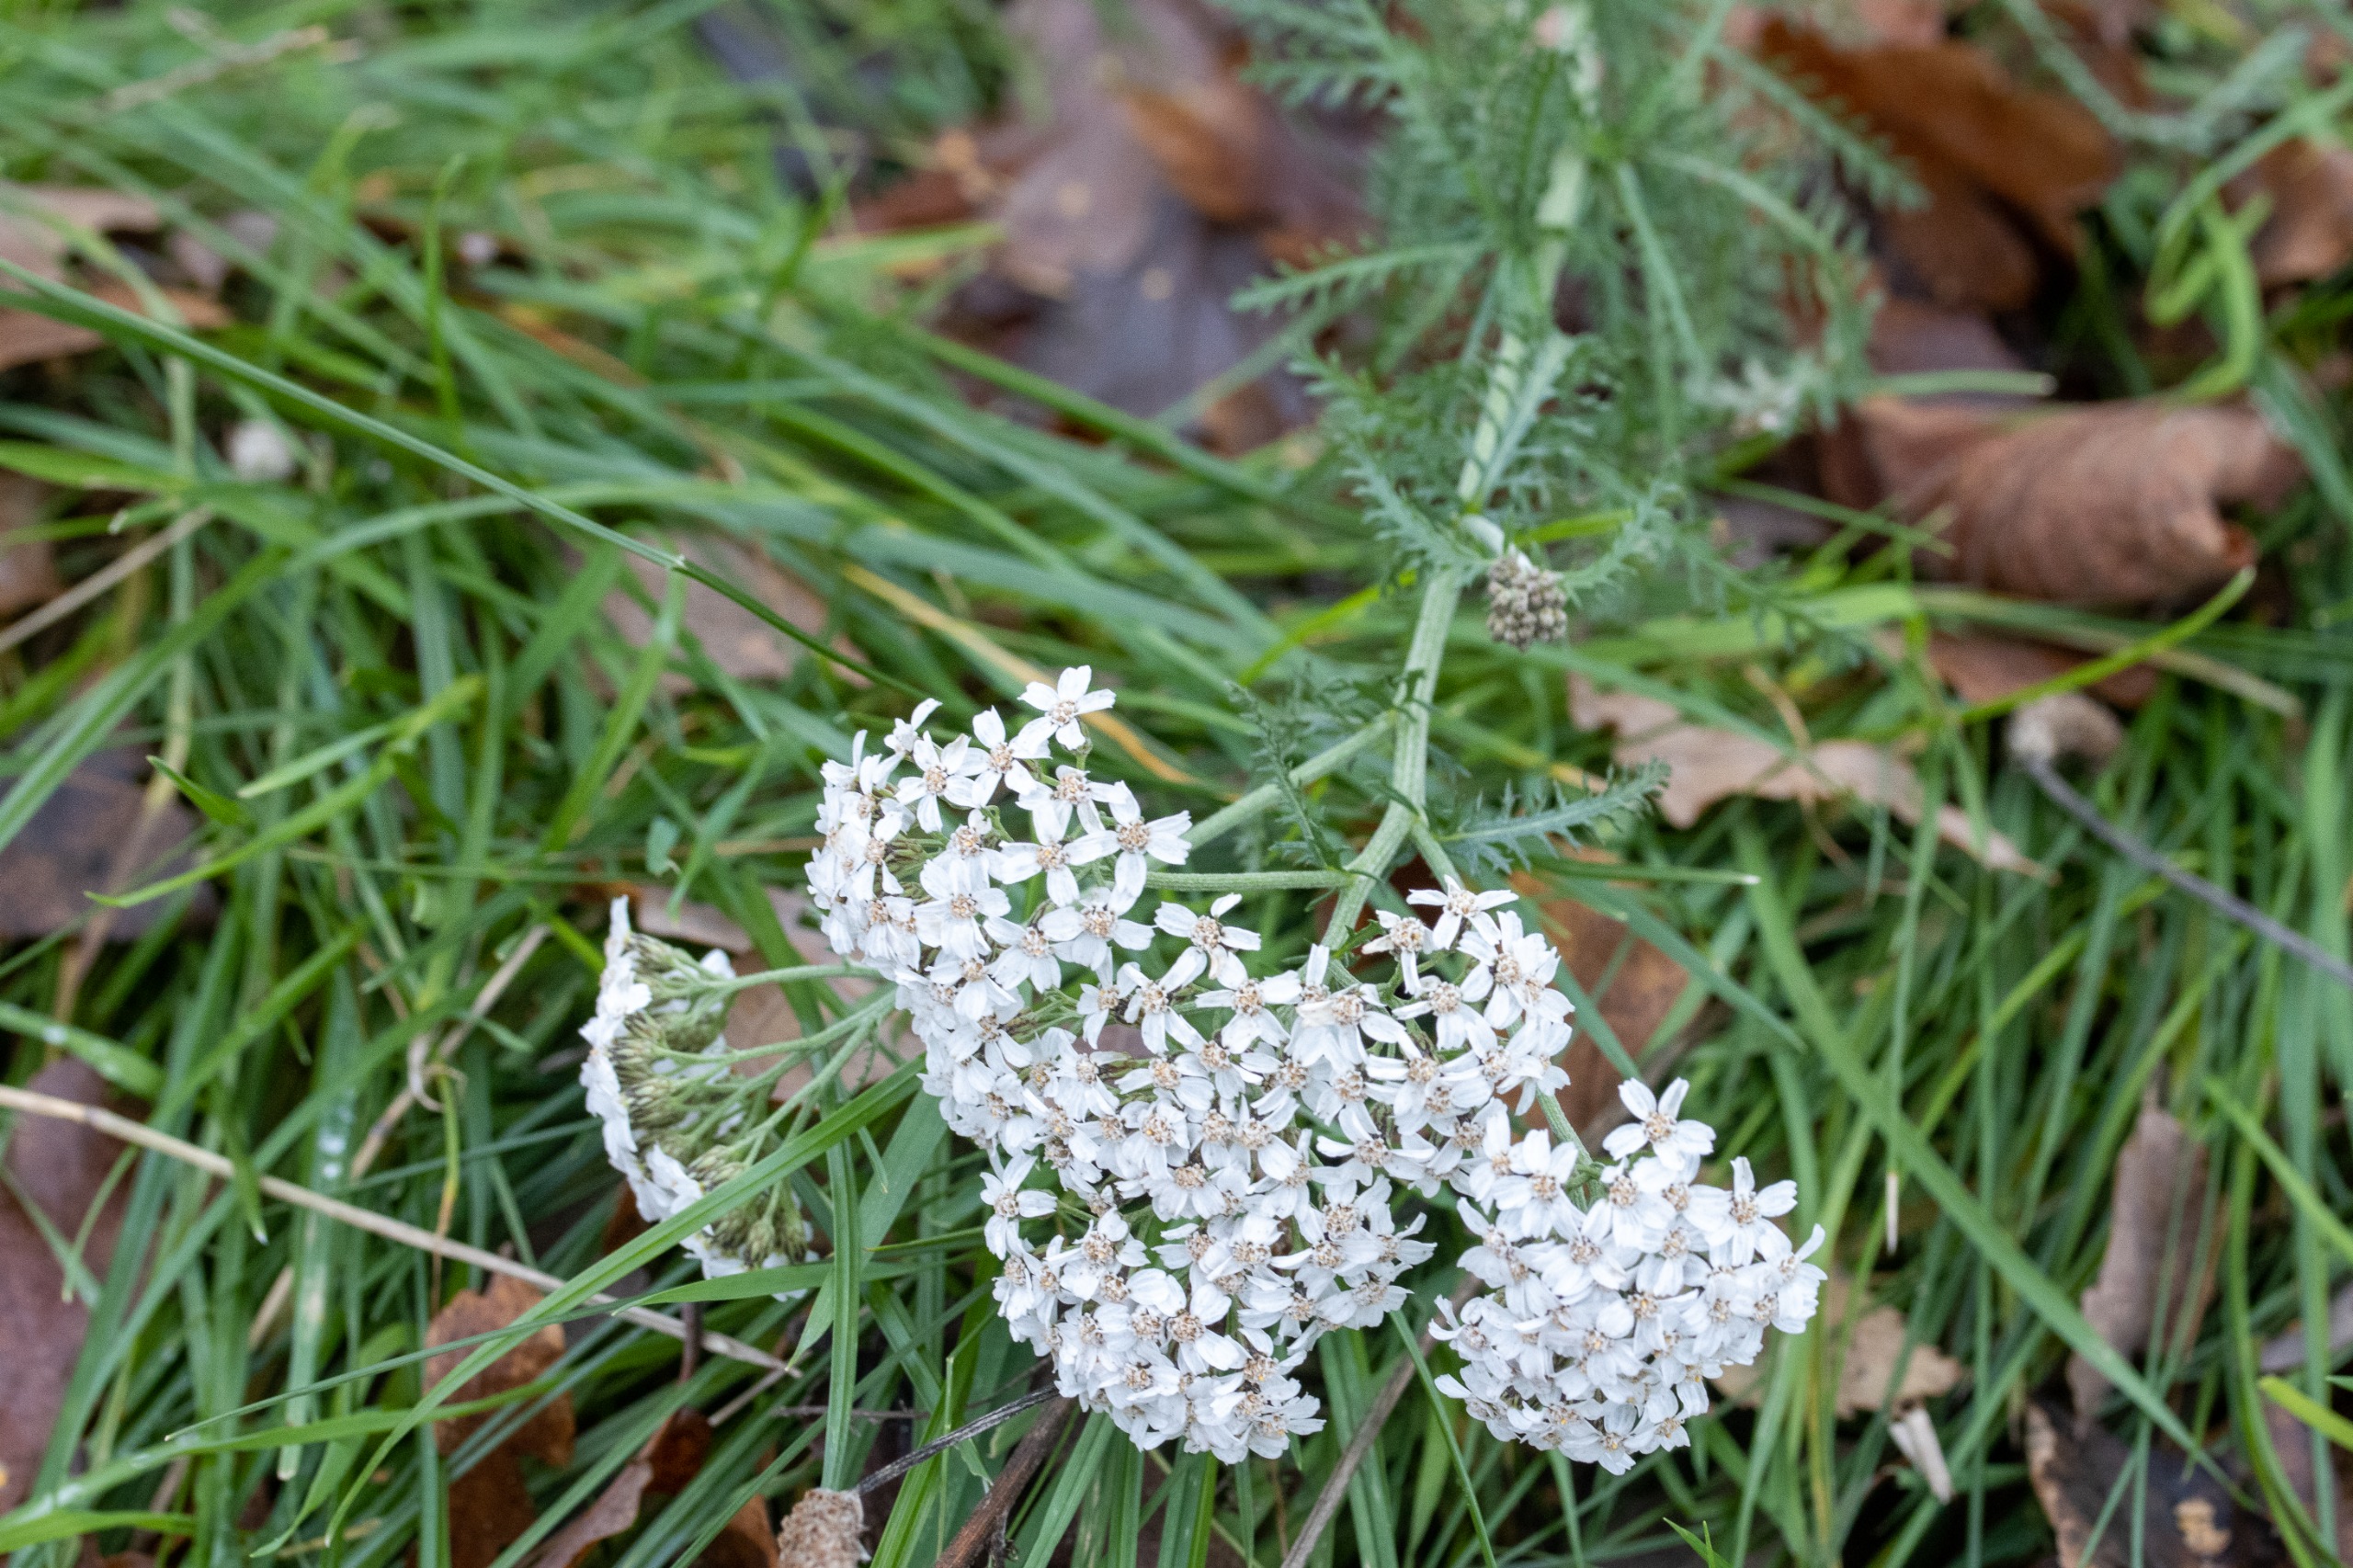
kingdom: Plantae
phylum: Tracheophyta
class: Magnoliopsida
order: Asterales
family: Asteraceae
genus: Achillea
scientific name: Achillea millefolium
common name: Almindelig røllike
